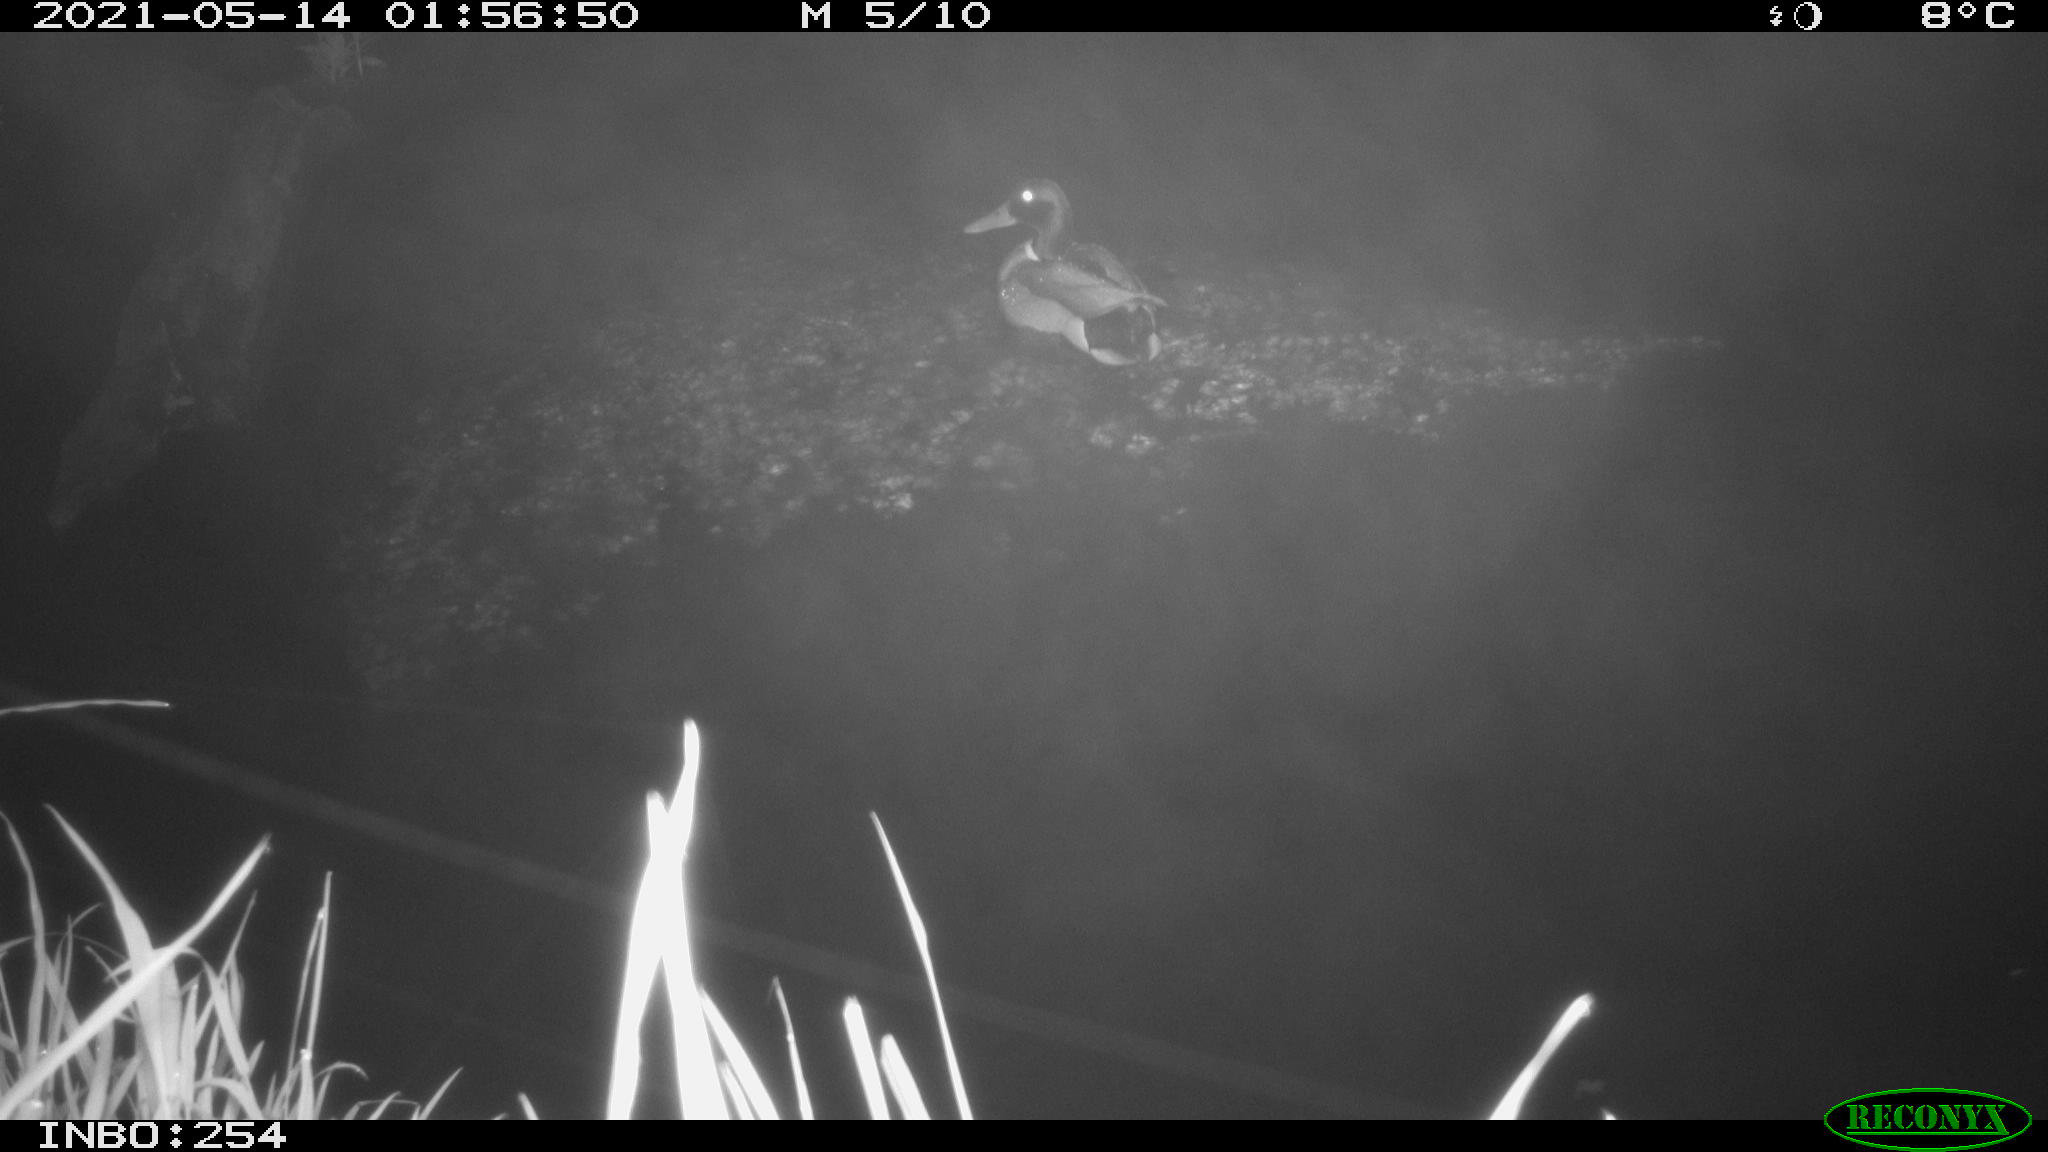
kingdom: Animalia
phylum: Chordata
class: Aves
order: Anseriformes
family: Anatidae
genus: Anas
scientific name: Anas
